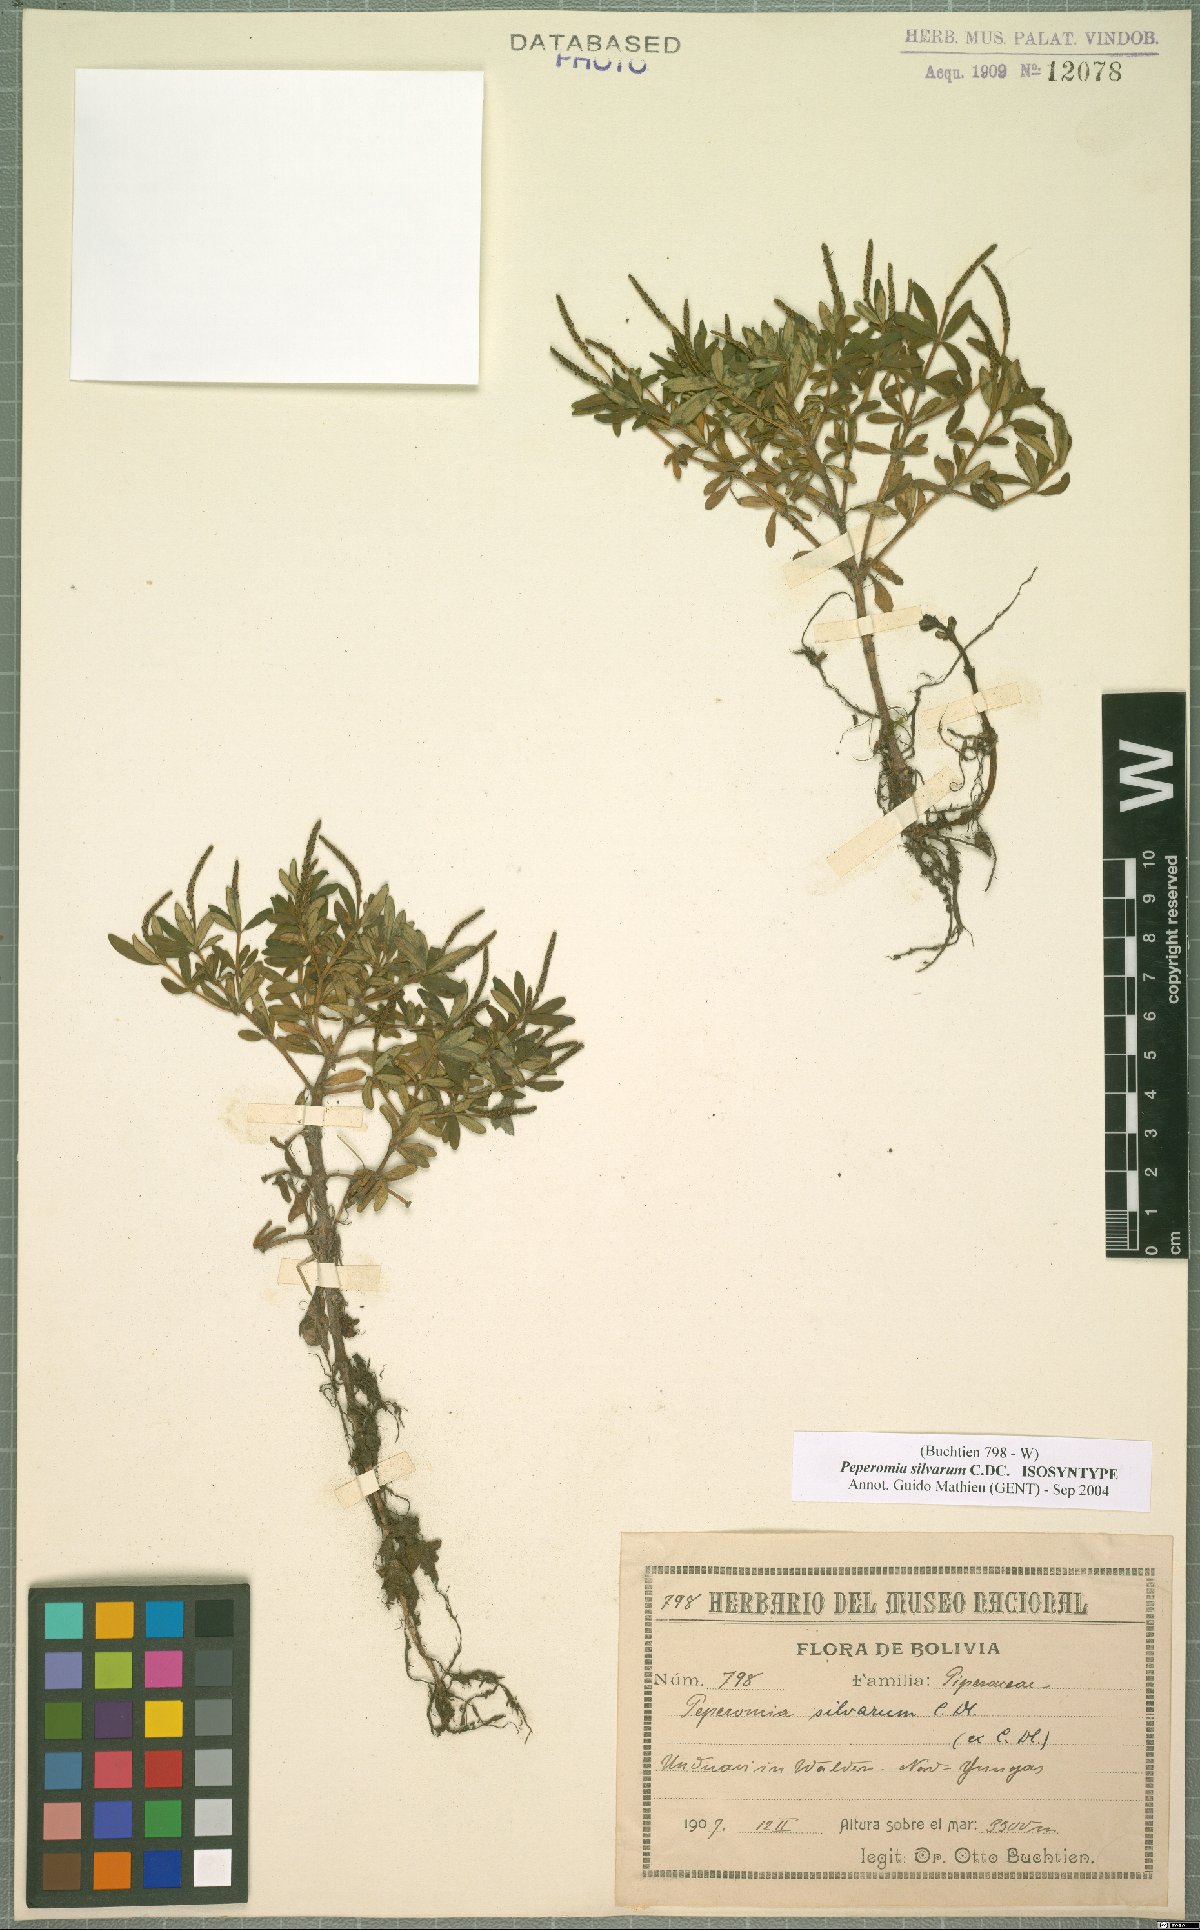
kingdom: Plantae
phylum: Tracheophyta
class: Magnoliopsida
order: Piperales
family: Piperaceae
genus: Peperomia
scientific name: Peperomia silvarum
